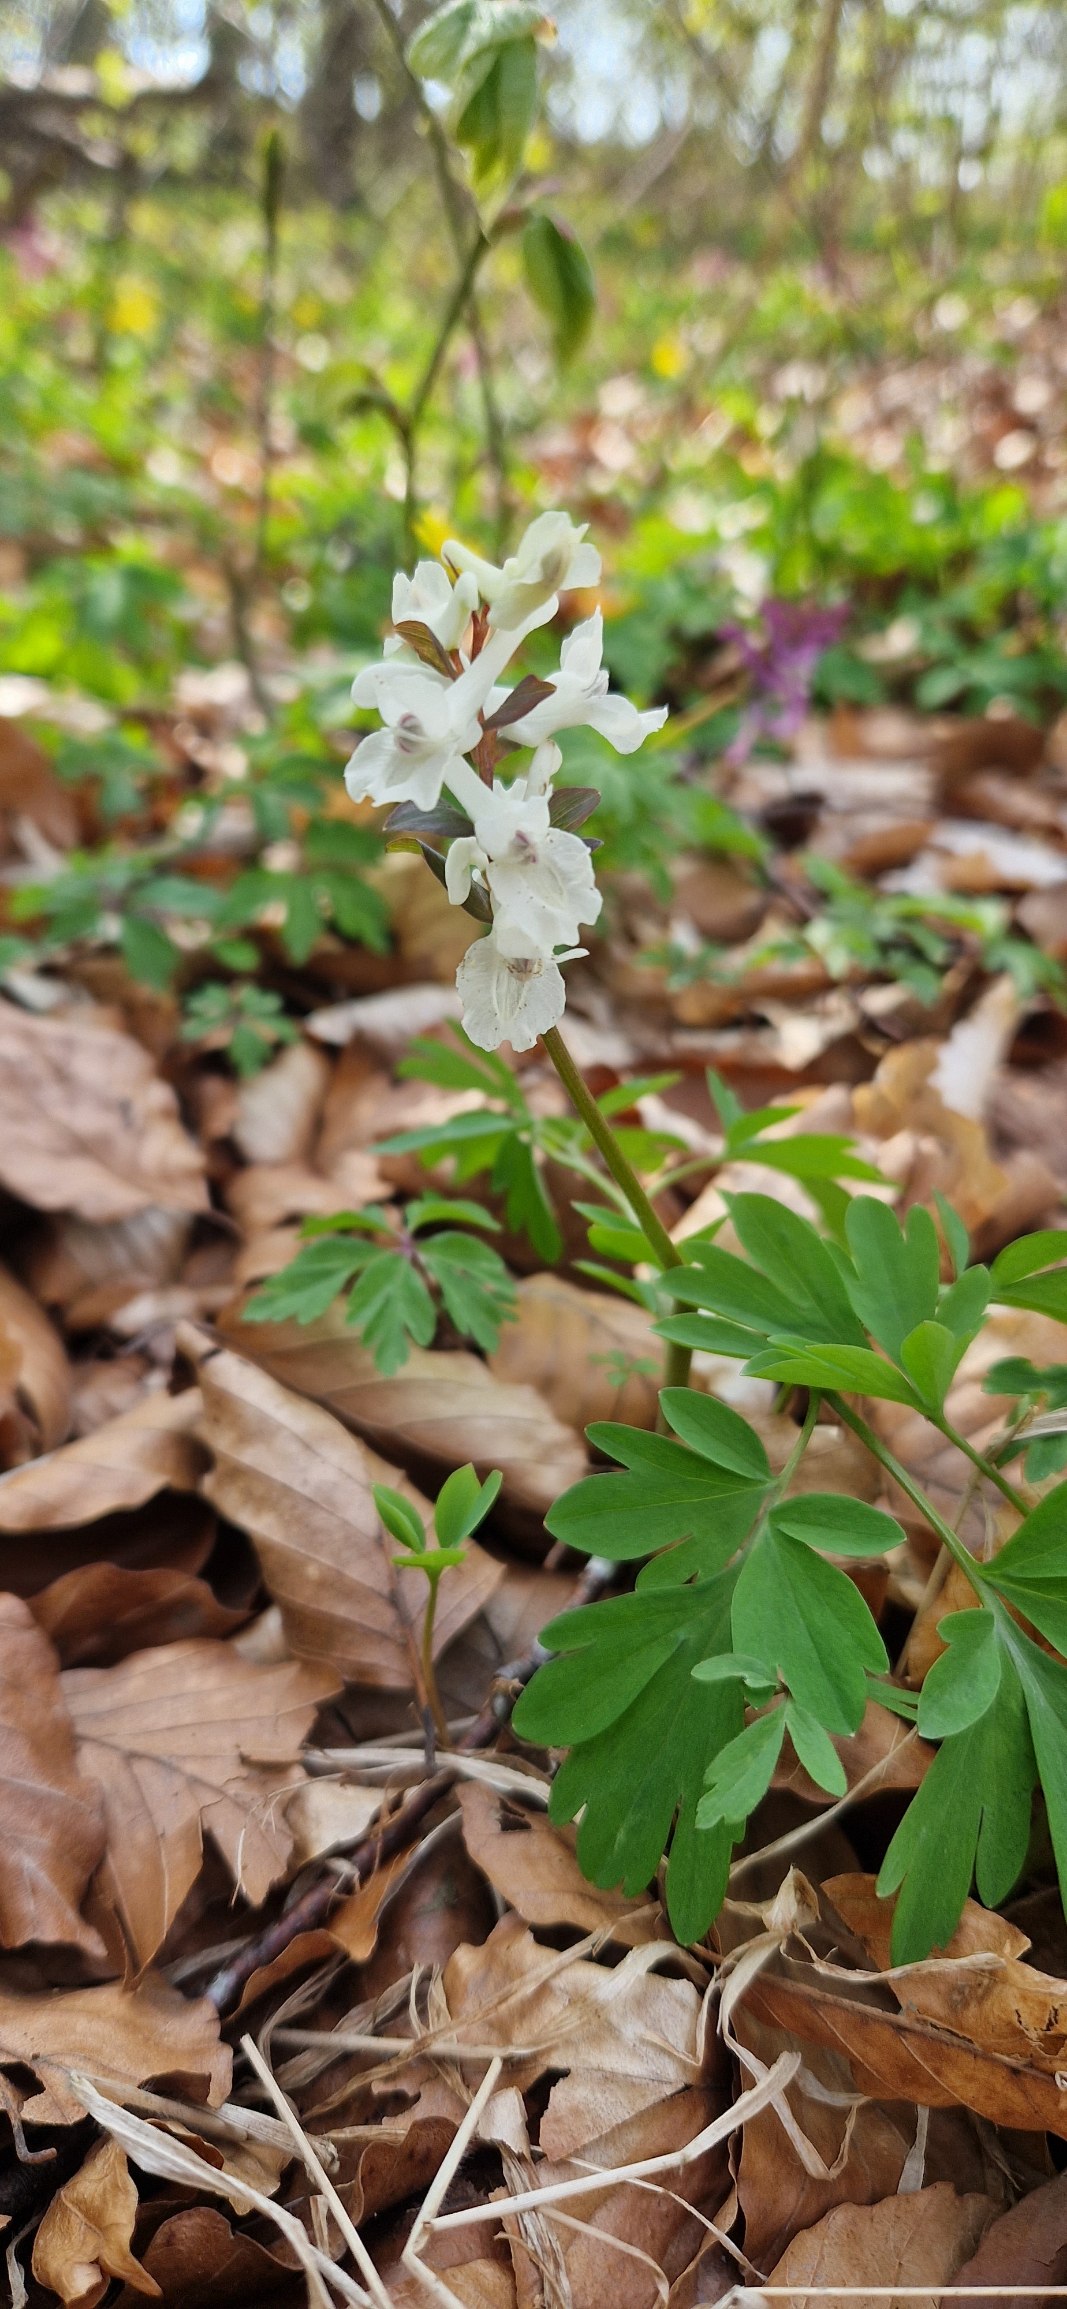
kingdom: Plantae
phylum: Tracheophyta
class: Magnoliopsida
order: Ranunculales
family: Papaveraceae
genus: Corydalis
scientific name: Corydalis cava
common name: Hulrodet lærkespore
